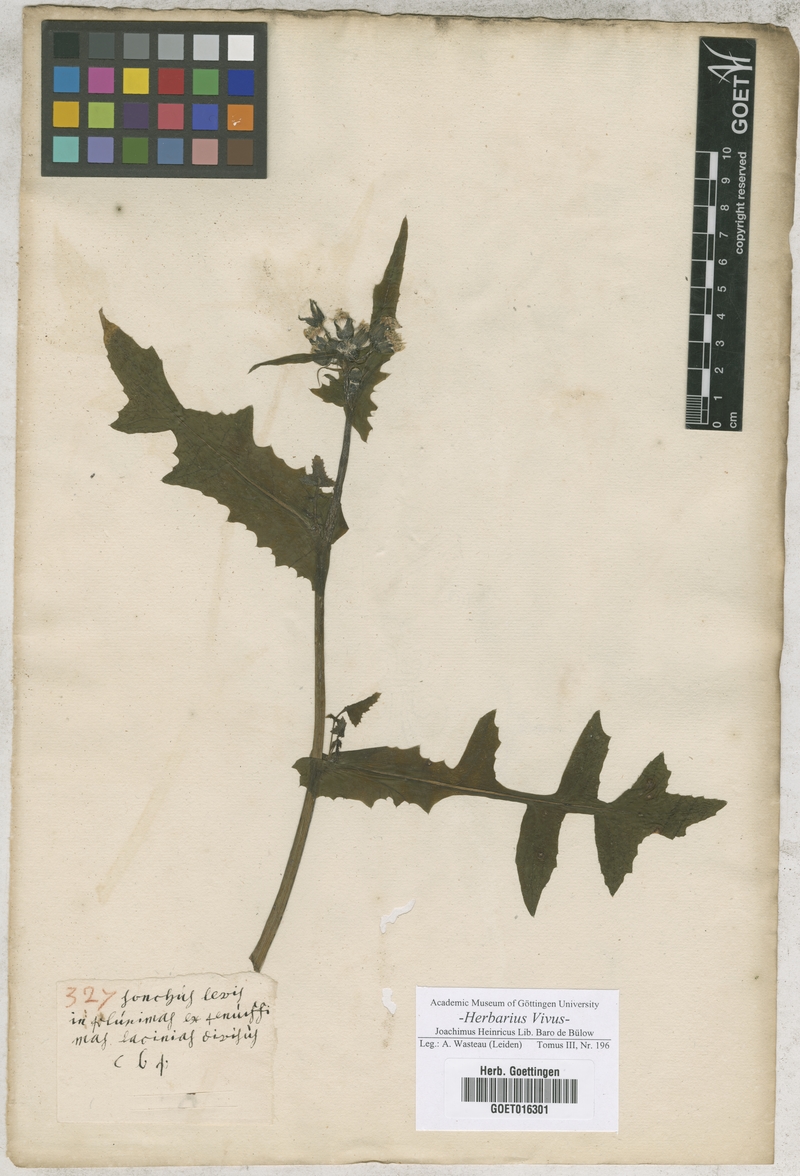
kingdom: Plantae
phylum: Tracheophyta
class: Magnoliopsida
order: Asterales
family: Asteraceae
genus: Sonchus
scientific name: Sonchus tenerrimus
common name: Clammy sowthistle
